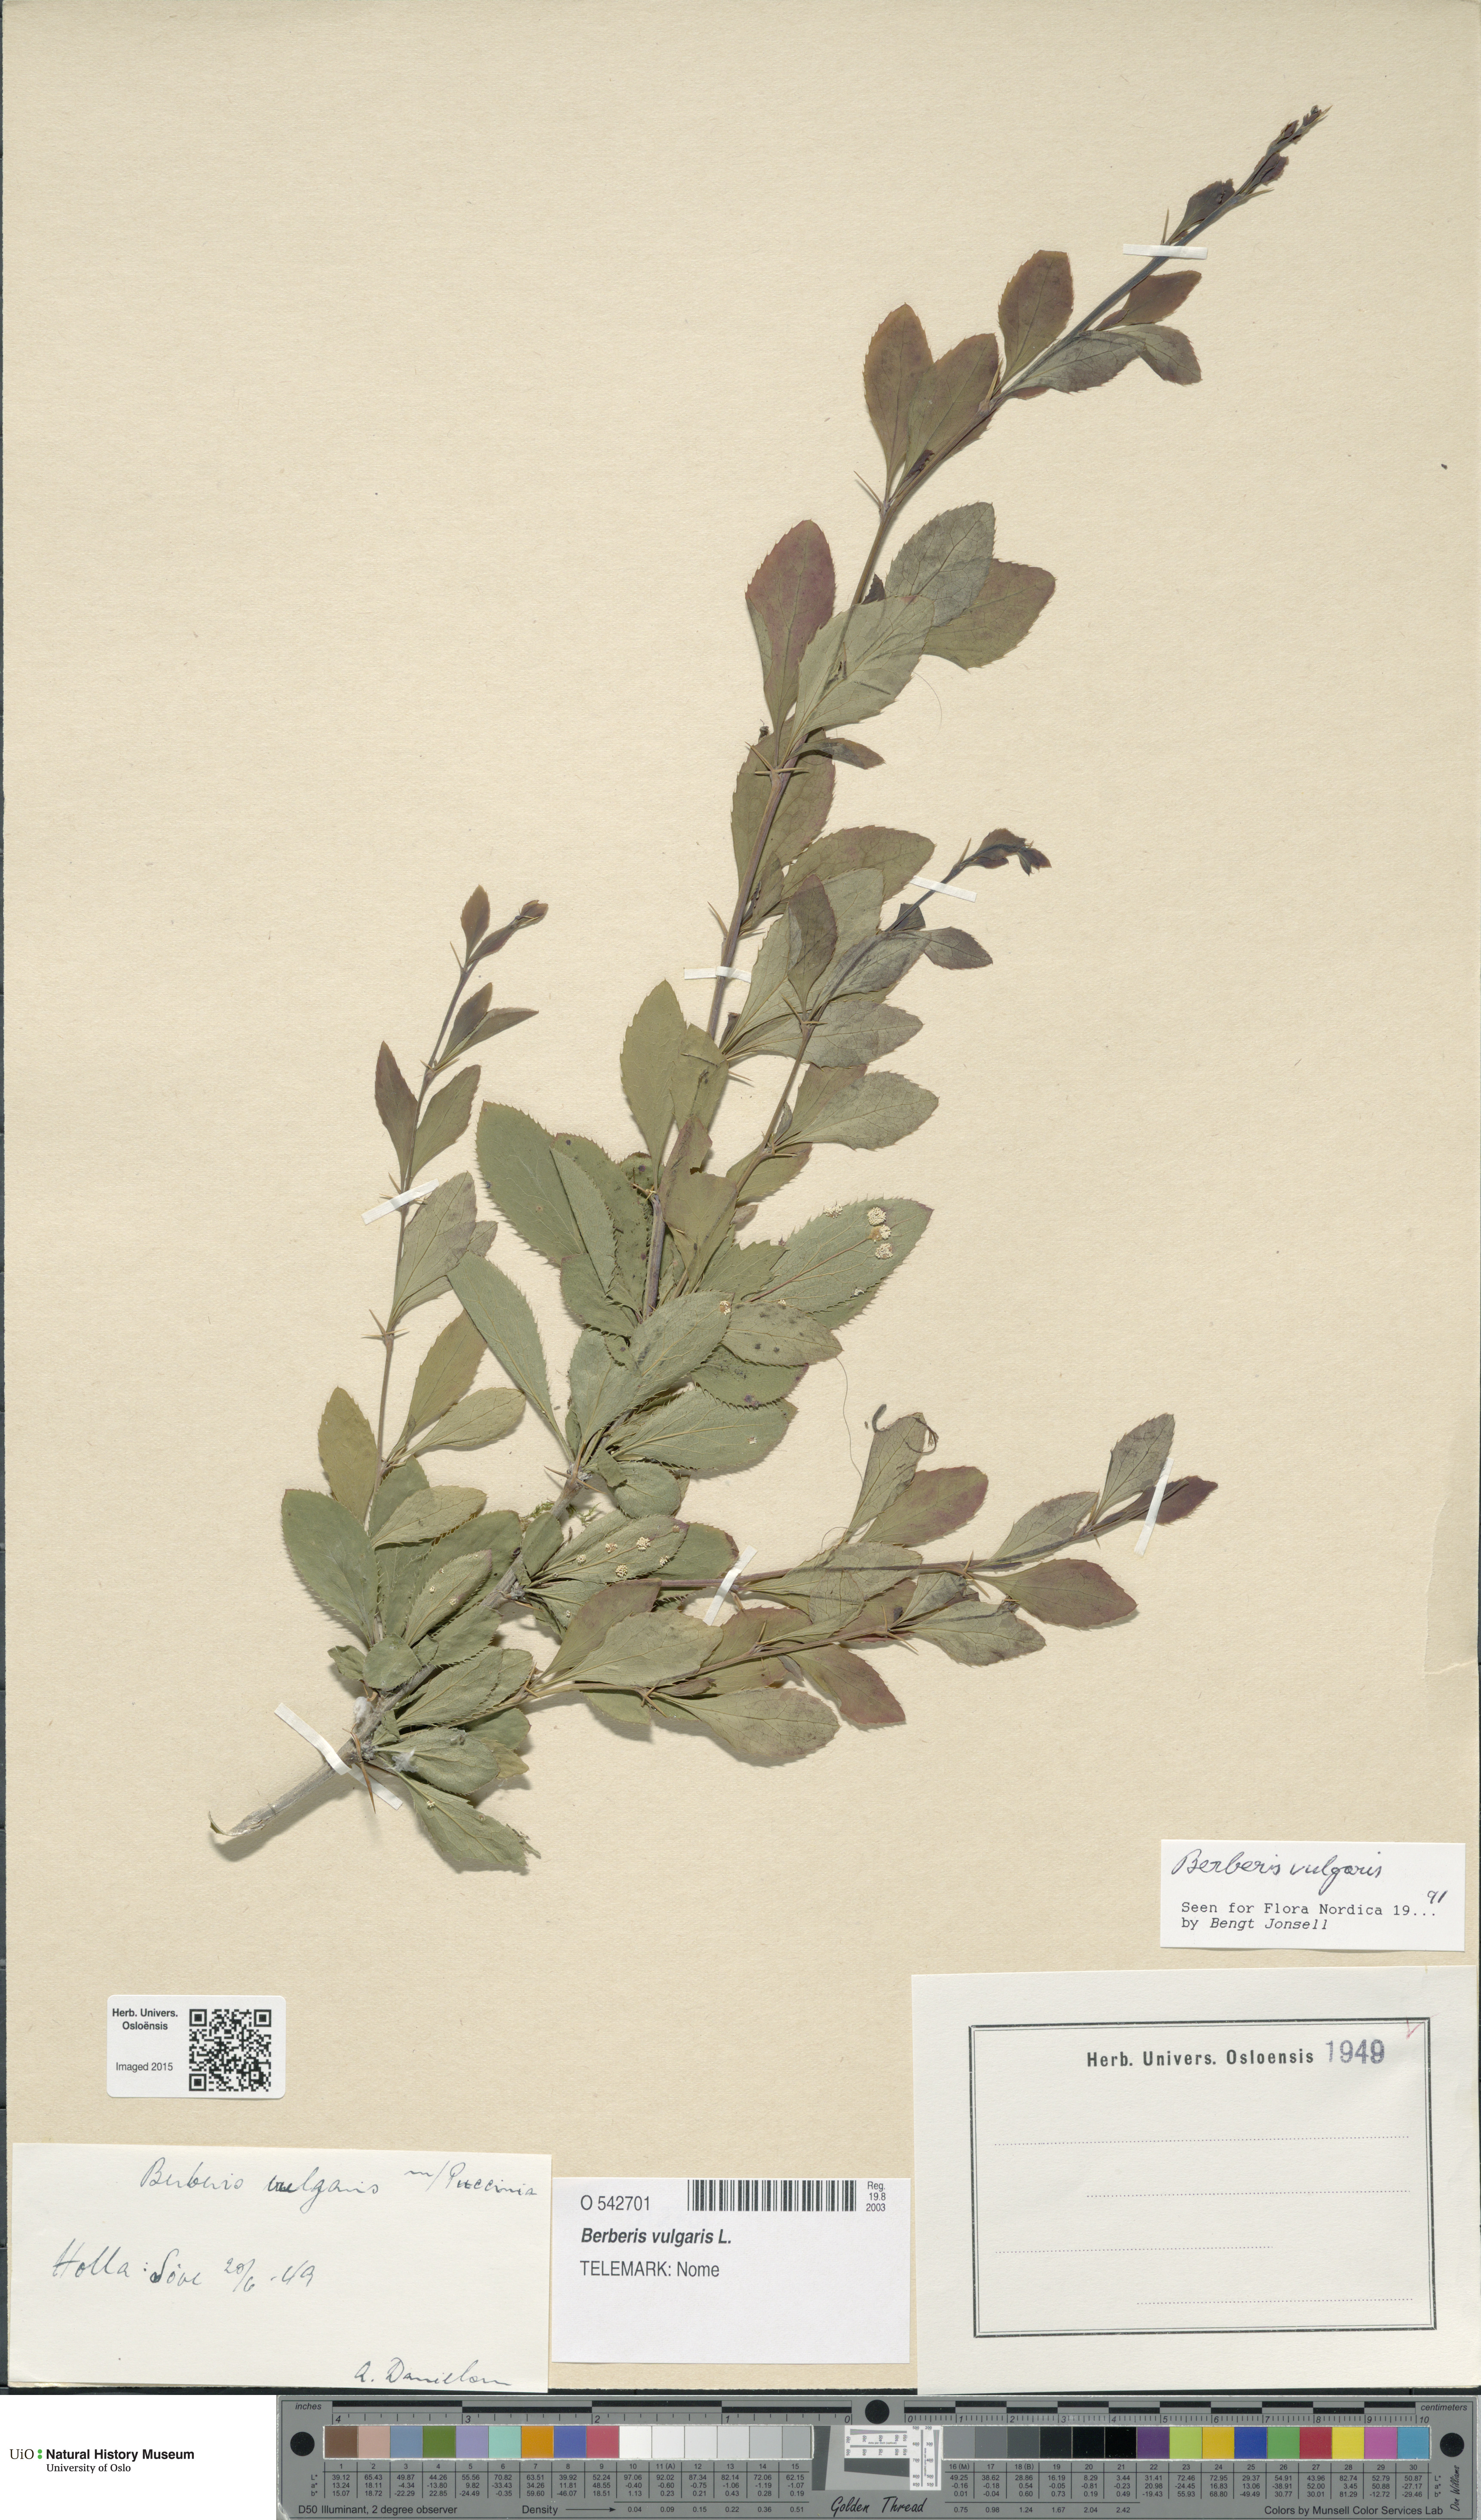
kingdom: Plantae
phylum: Tracheophyta
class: Magnoliopsida
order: Ranunculales
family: Berberidaceae
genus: Berberis
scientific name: Berberis vulgaris
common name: Barberry
